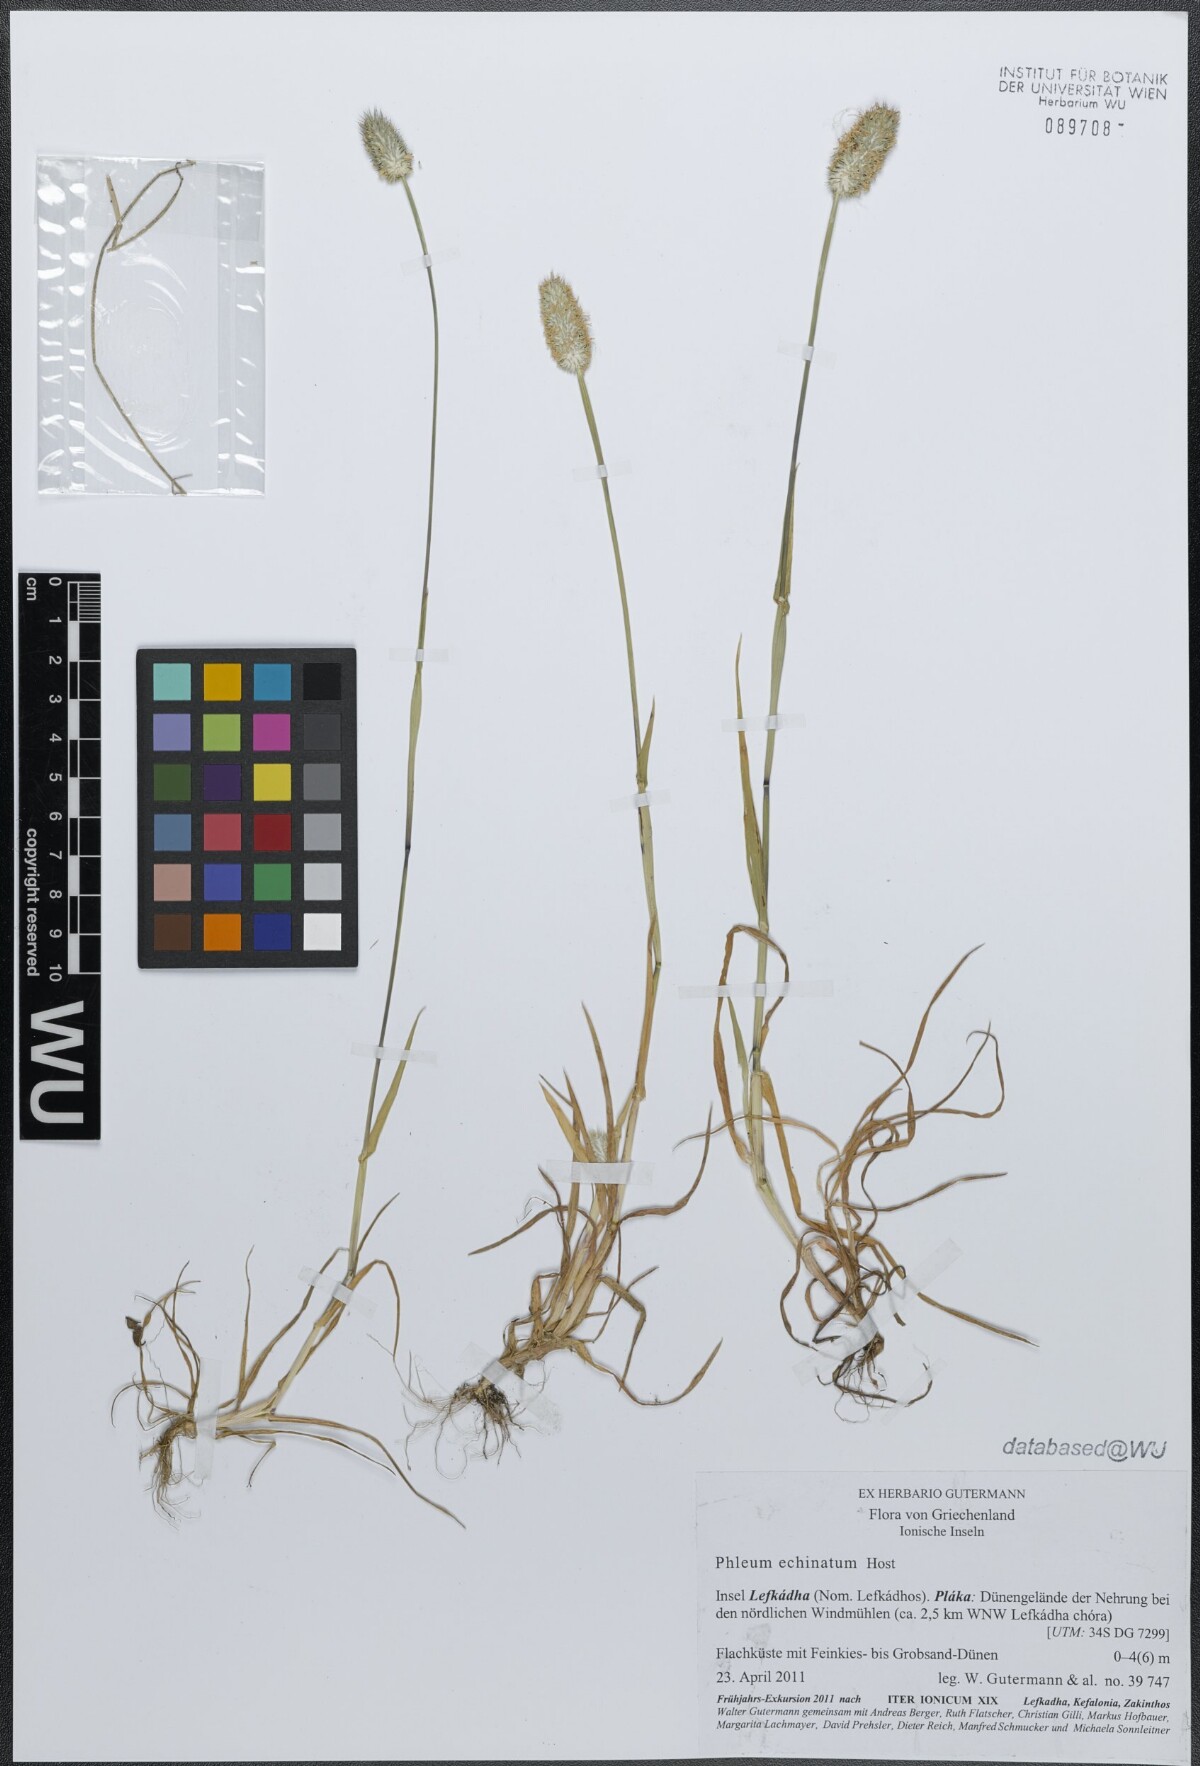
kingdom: Plantae
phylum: Tracheophyta
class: Liliopsida
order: Poales
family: Poaceae
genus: Phleum
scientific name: Phleum echinatum
